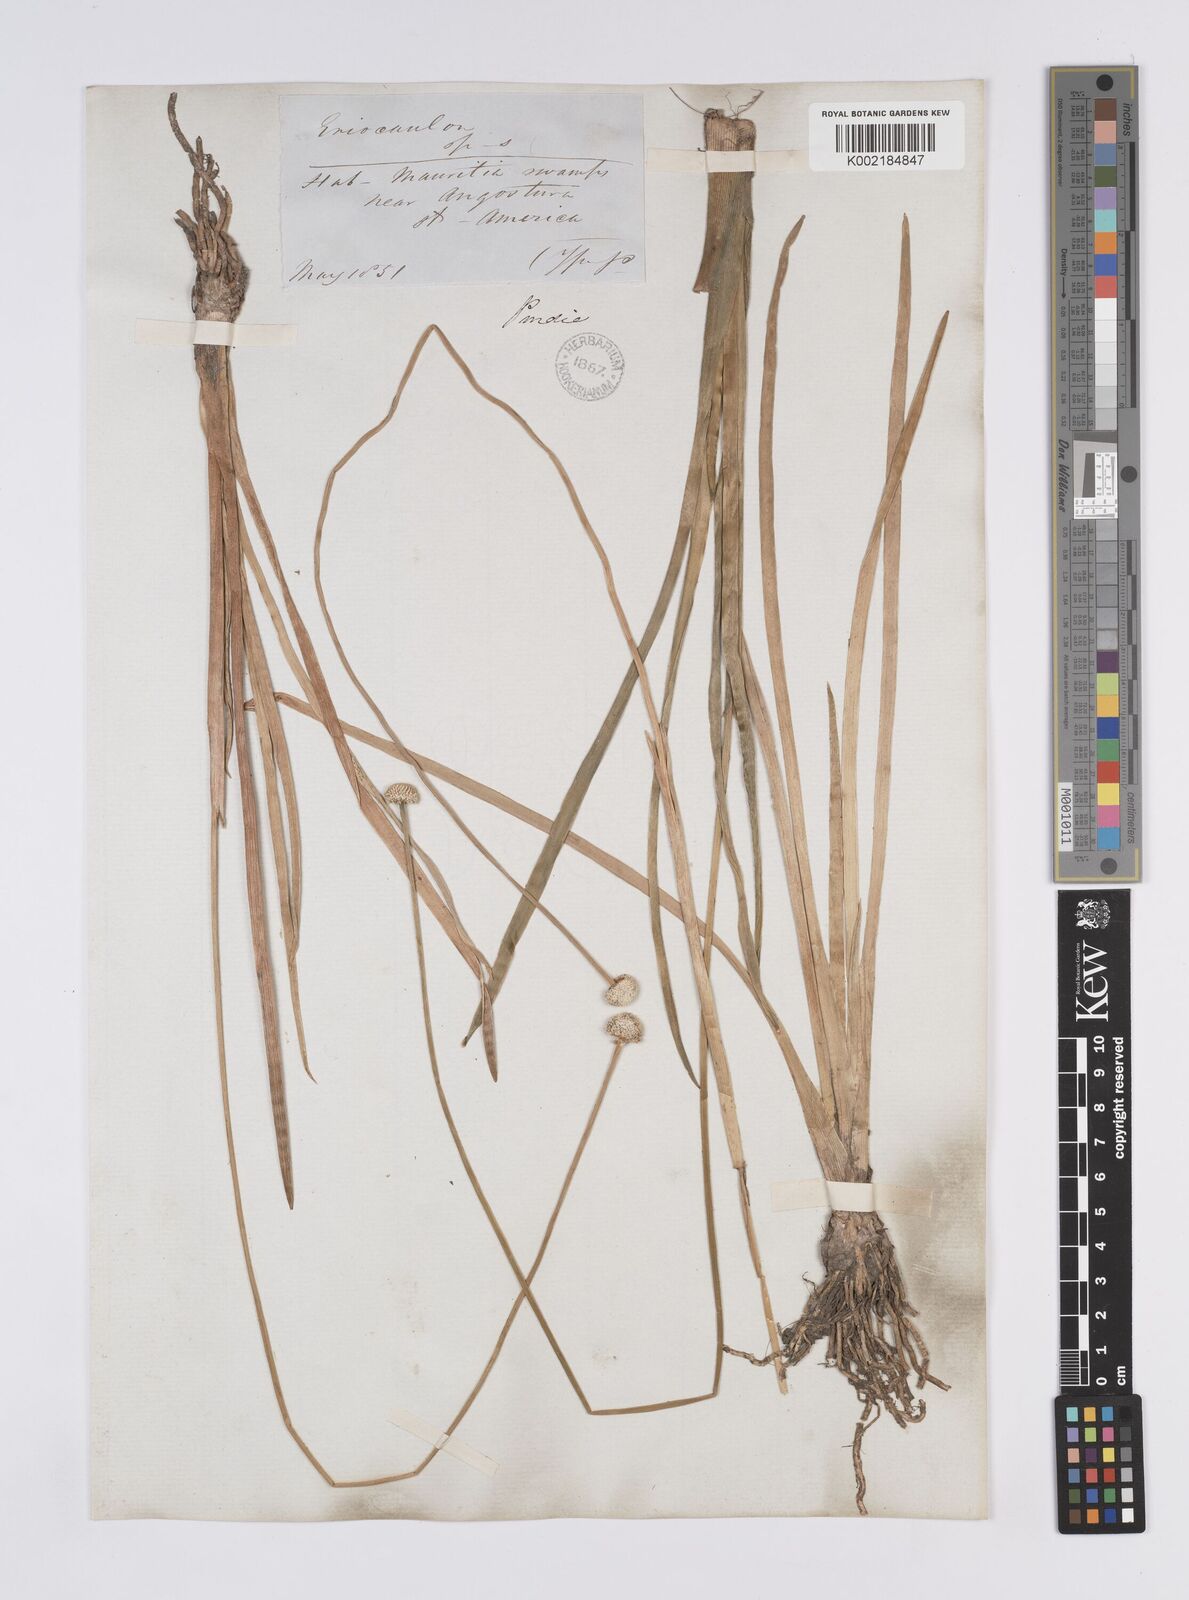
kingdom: Plantae
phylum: Tracheophyta
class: Liliopsida
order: Poales
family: Eriocaulaceae
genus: Eriocaulon
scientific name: Eriocaulon humboldtii
